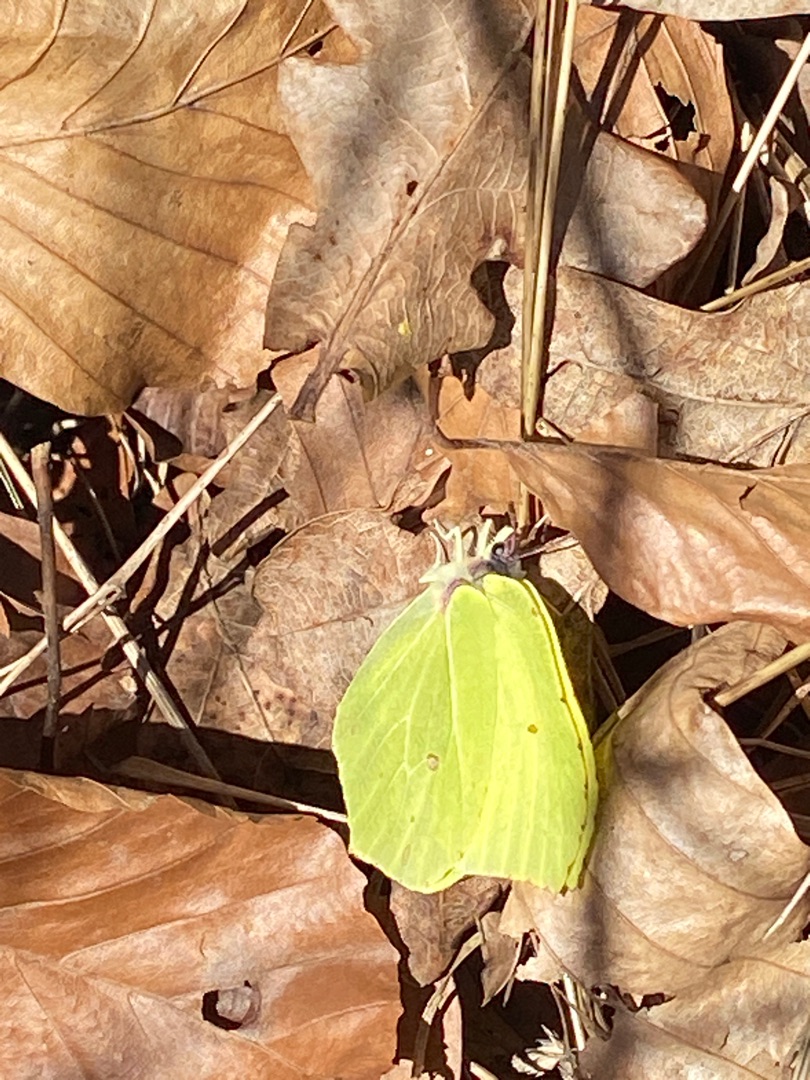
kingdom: Animalia
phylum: Arthropoda
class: Insecta
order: Lepidoptera
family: Pieridae
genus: Gonepteryx
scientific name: Gonepteryx rhamni
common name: Citronsommerfugl
